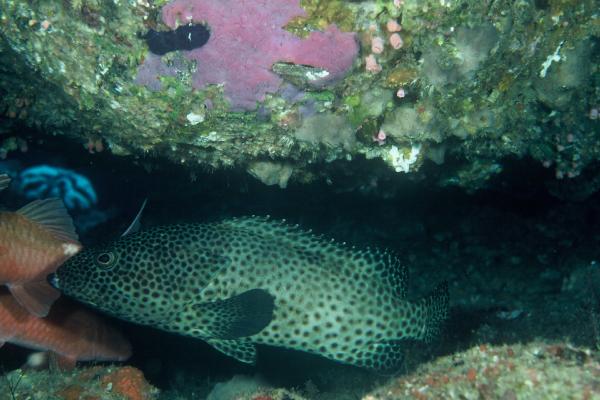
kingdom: Animalia
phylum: Chordata
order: Perciformes
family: Serranidae
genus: Epinephelus
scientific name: Epinephelus tauvina
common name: Greasy grouper
